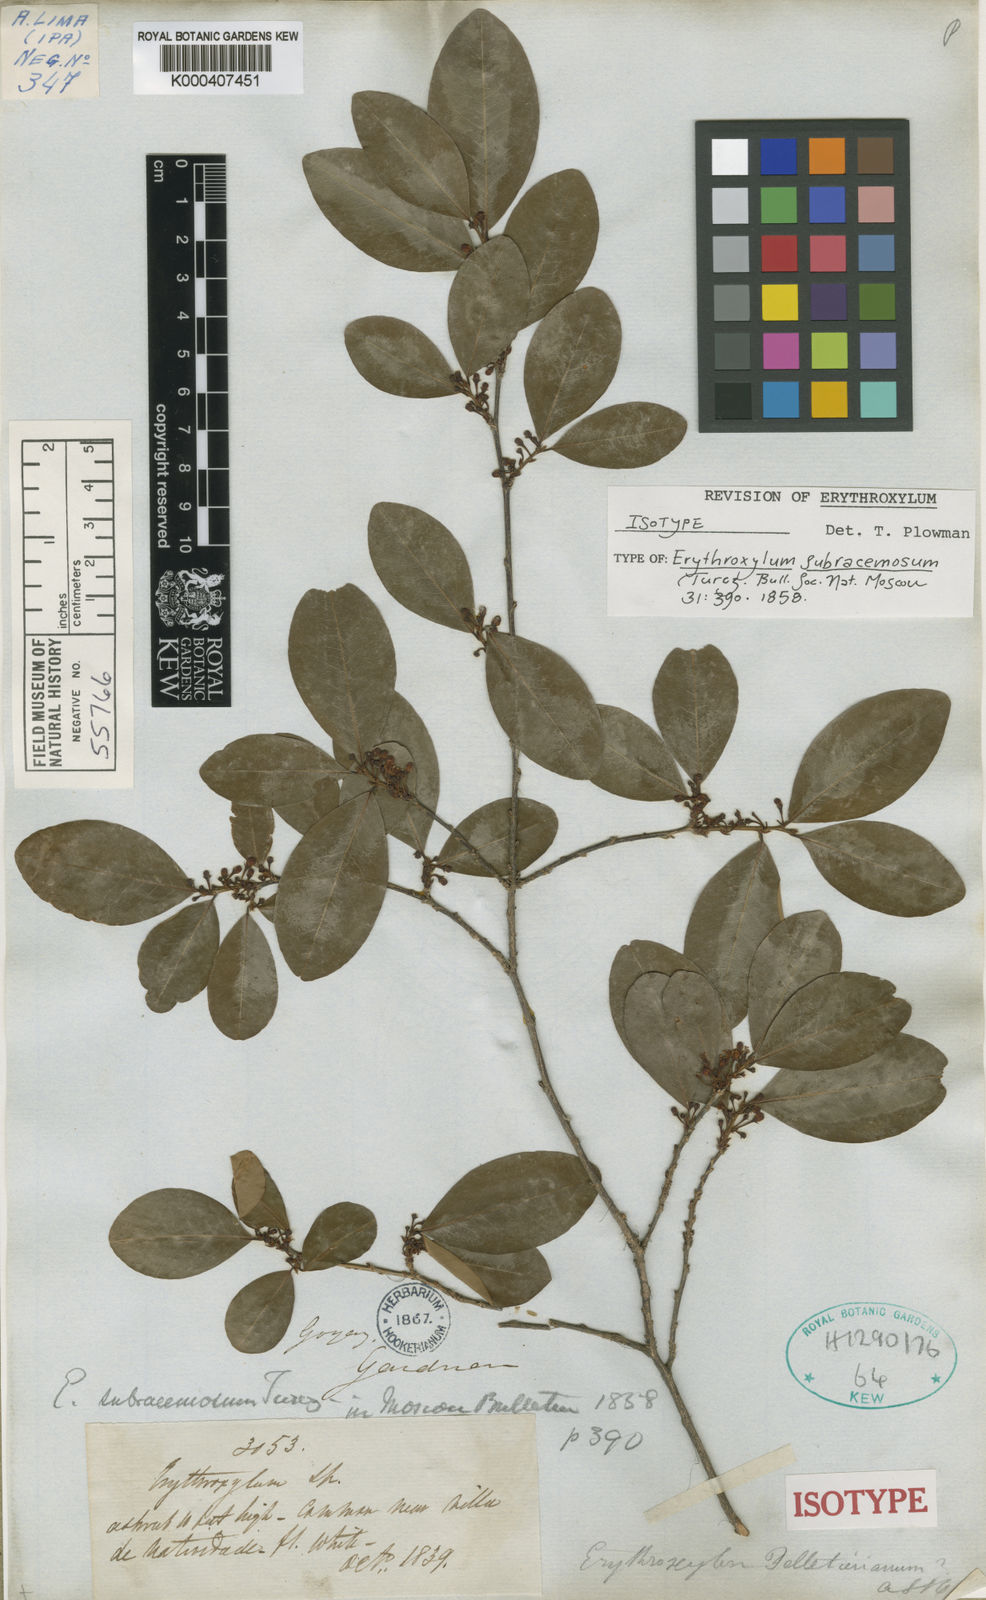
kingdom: Plantae
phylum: Tracheophyta
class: Magnoliopsida
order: Malpighiales
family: Erythroxylaceae
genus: Erythroxylum
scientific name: Erythroxylum subracemosum
